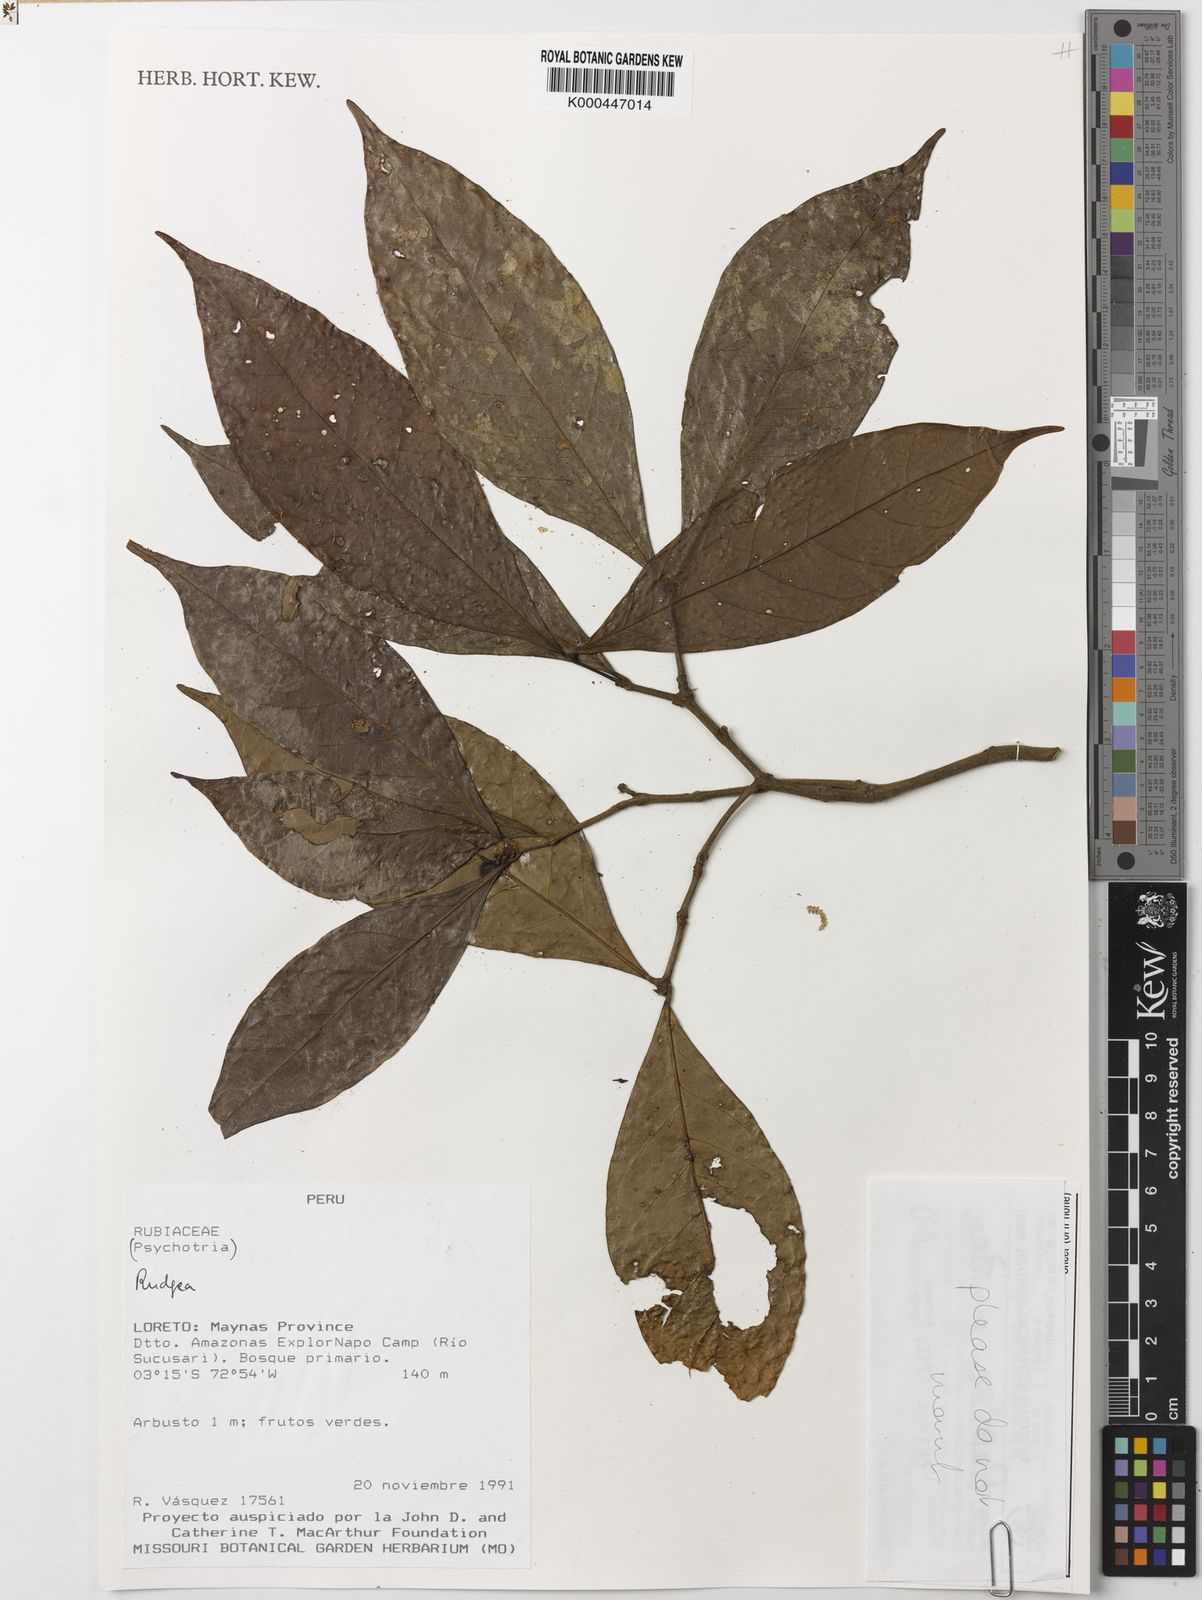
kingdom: Plantae
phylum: Tracheophyta
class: Magnoliopsida
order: Gentianales
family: Rubiaceae
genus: Rudgea
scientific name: Rudgea
